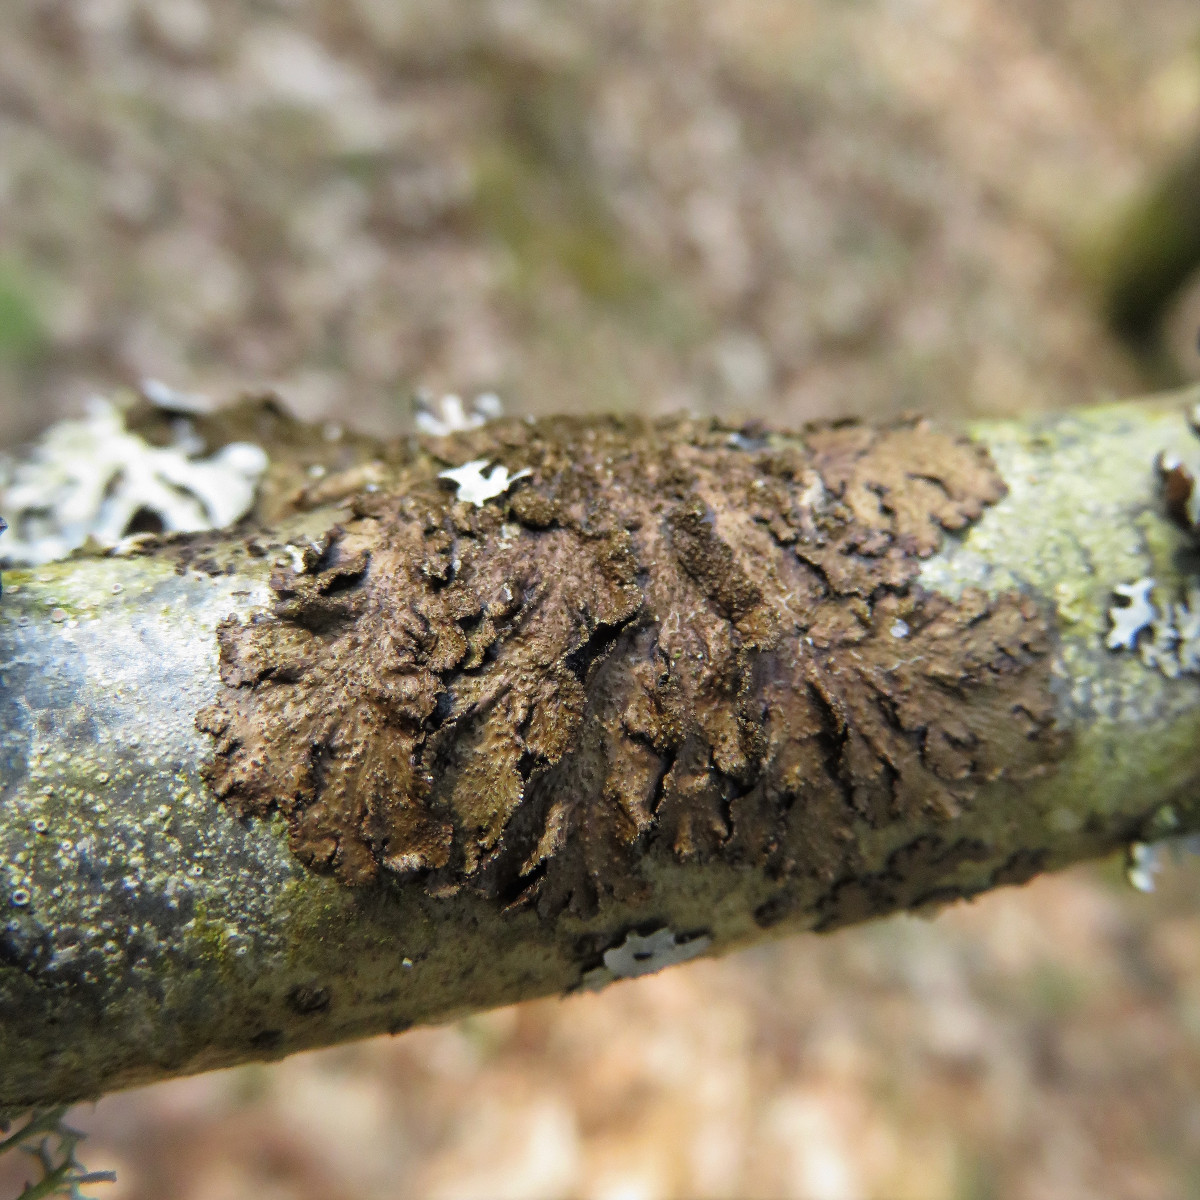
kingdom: Fungi
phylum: Ascomycota
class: Lecanoromycetes
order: Lecanorales
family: Parmeliaceae
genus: Melanelixia
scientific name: Melanelixia subaurifera
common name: guldpudret skållav
